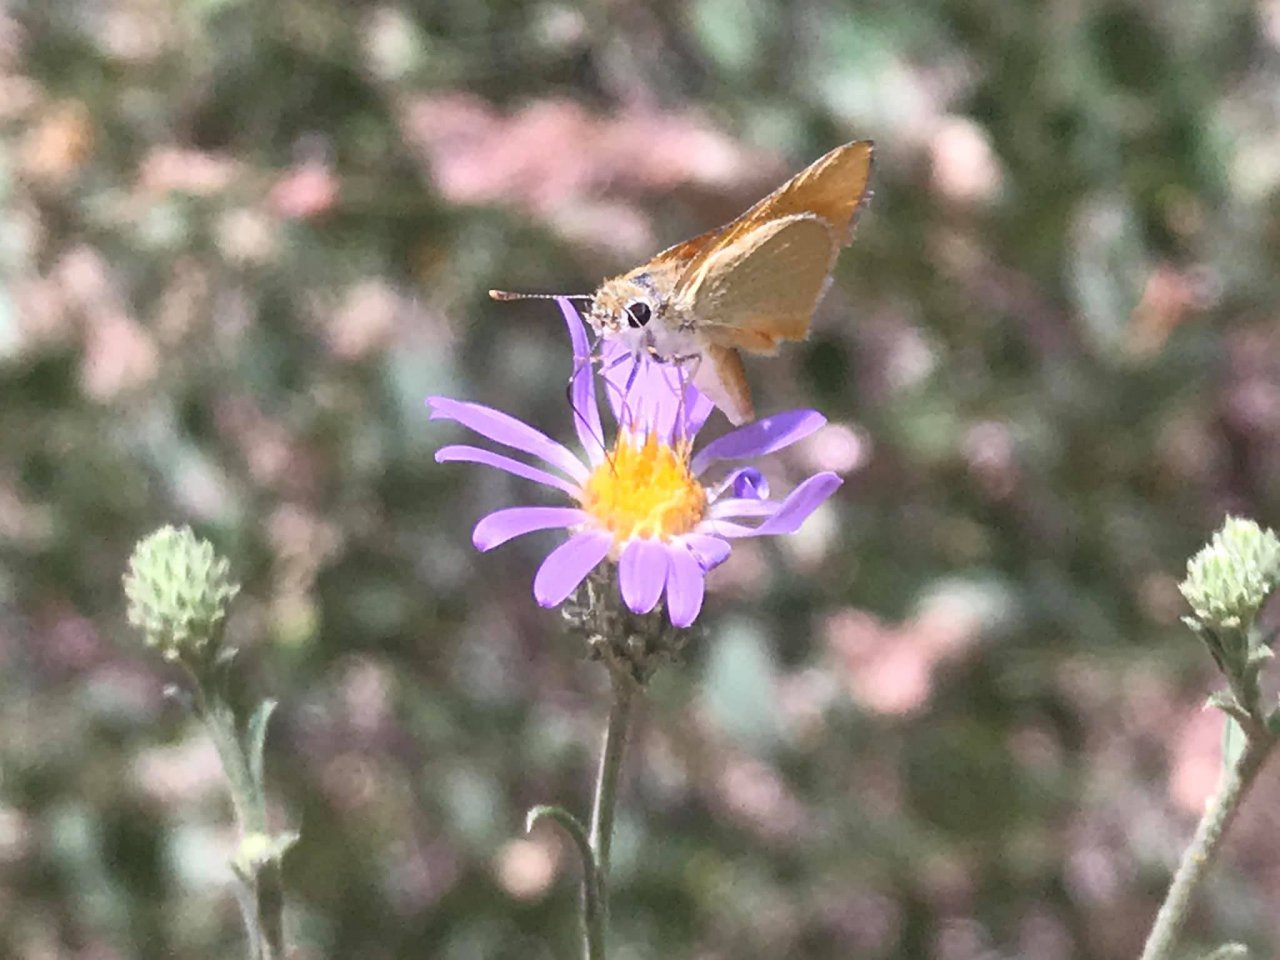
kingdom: Animalia
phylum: Arthropoda
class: Insecta
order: Lepidoptera
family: Hesperiidae
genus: Copaeodes
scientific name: Copaeodes aurantiaca
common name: Orange Skipperling
